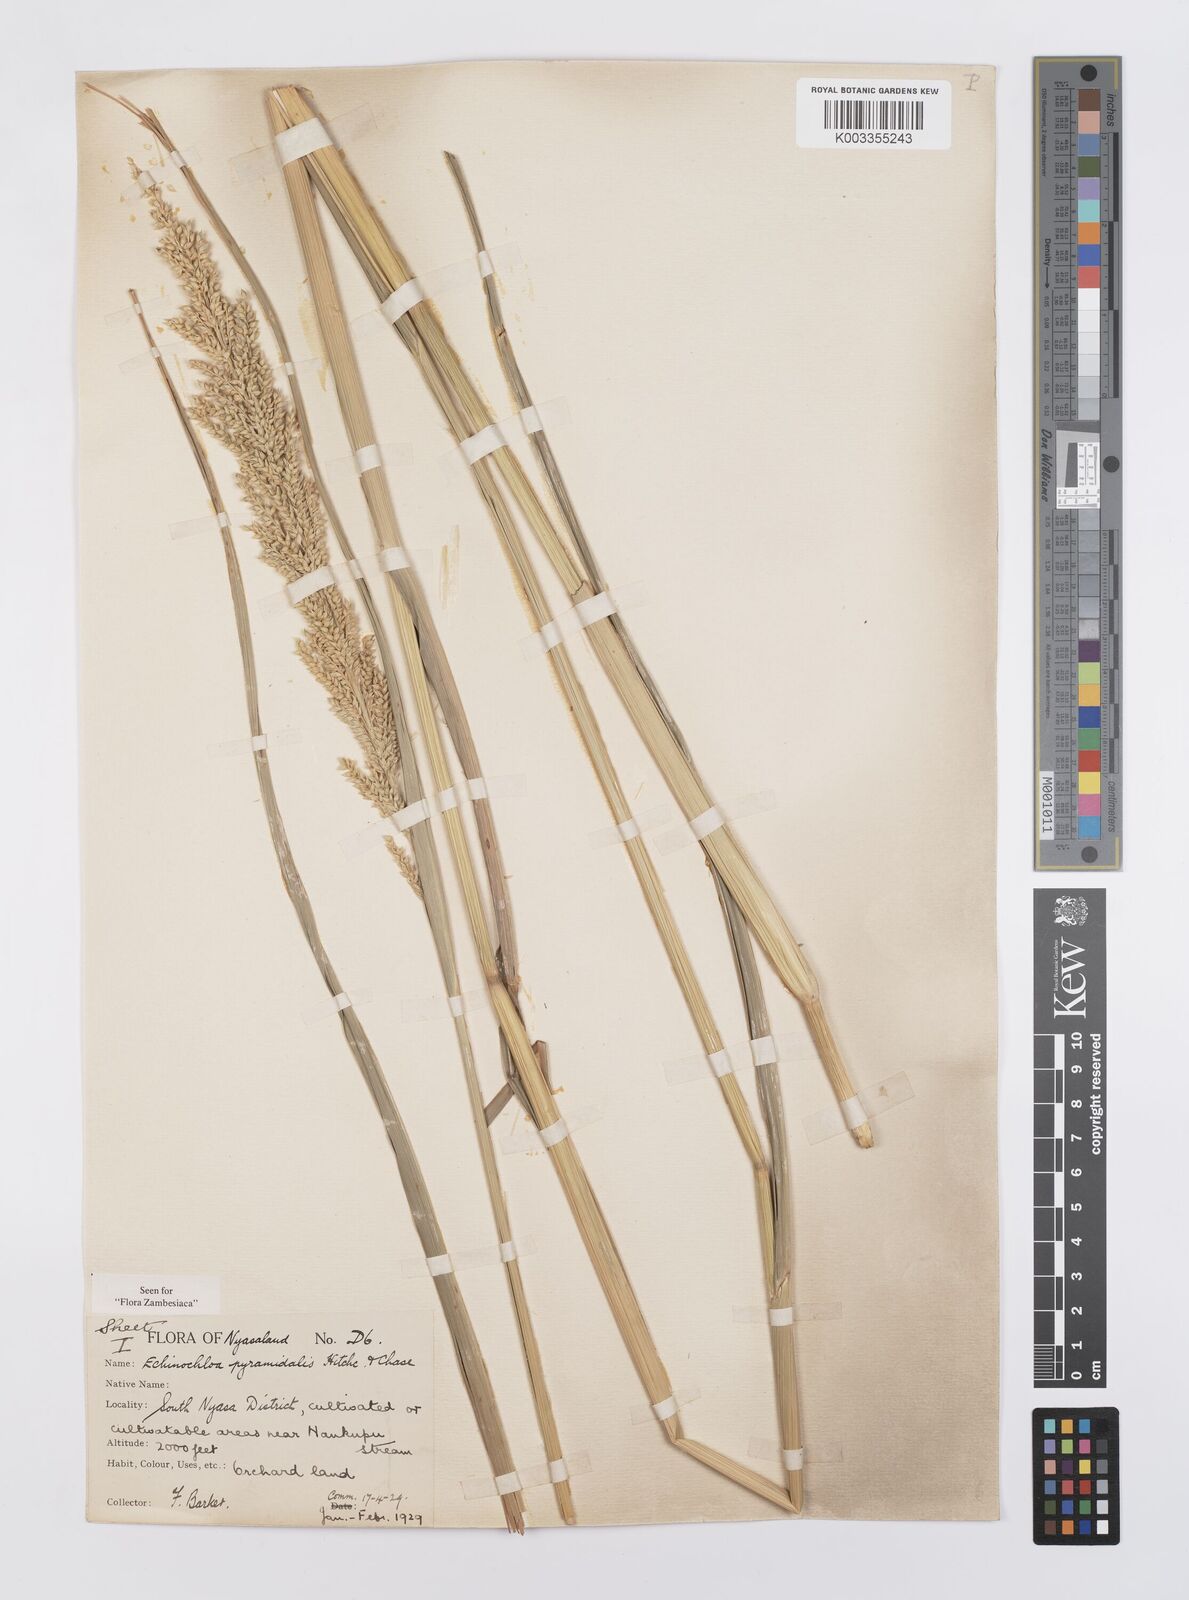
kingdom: Plantae
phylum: Tracheophyta
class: Liliopsida
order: Poales
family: Poaceae
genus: Echinochloa
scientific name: Echinochloa pyramidalis
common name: Antelope grass
